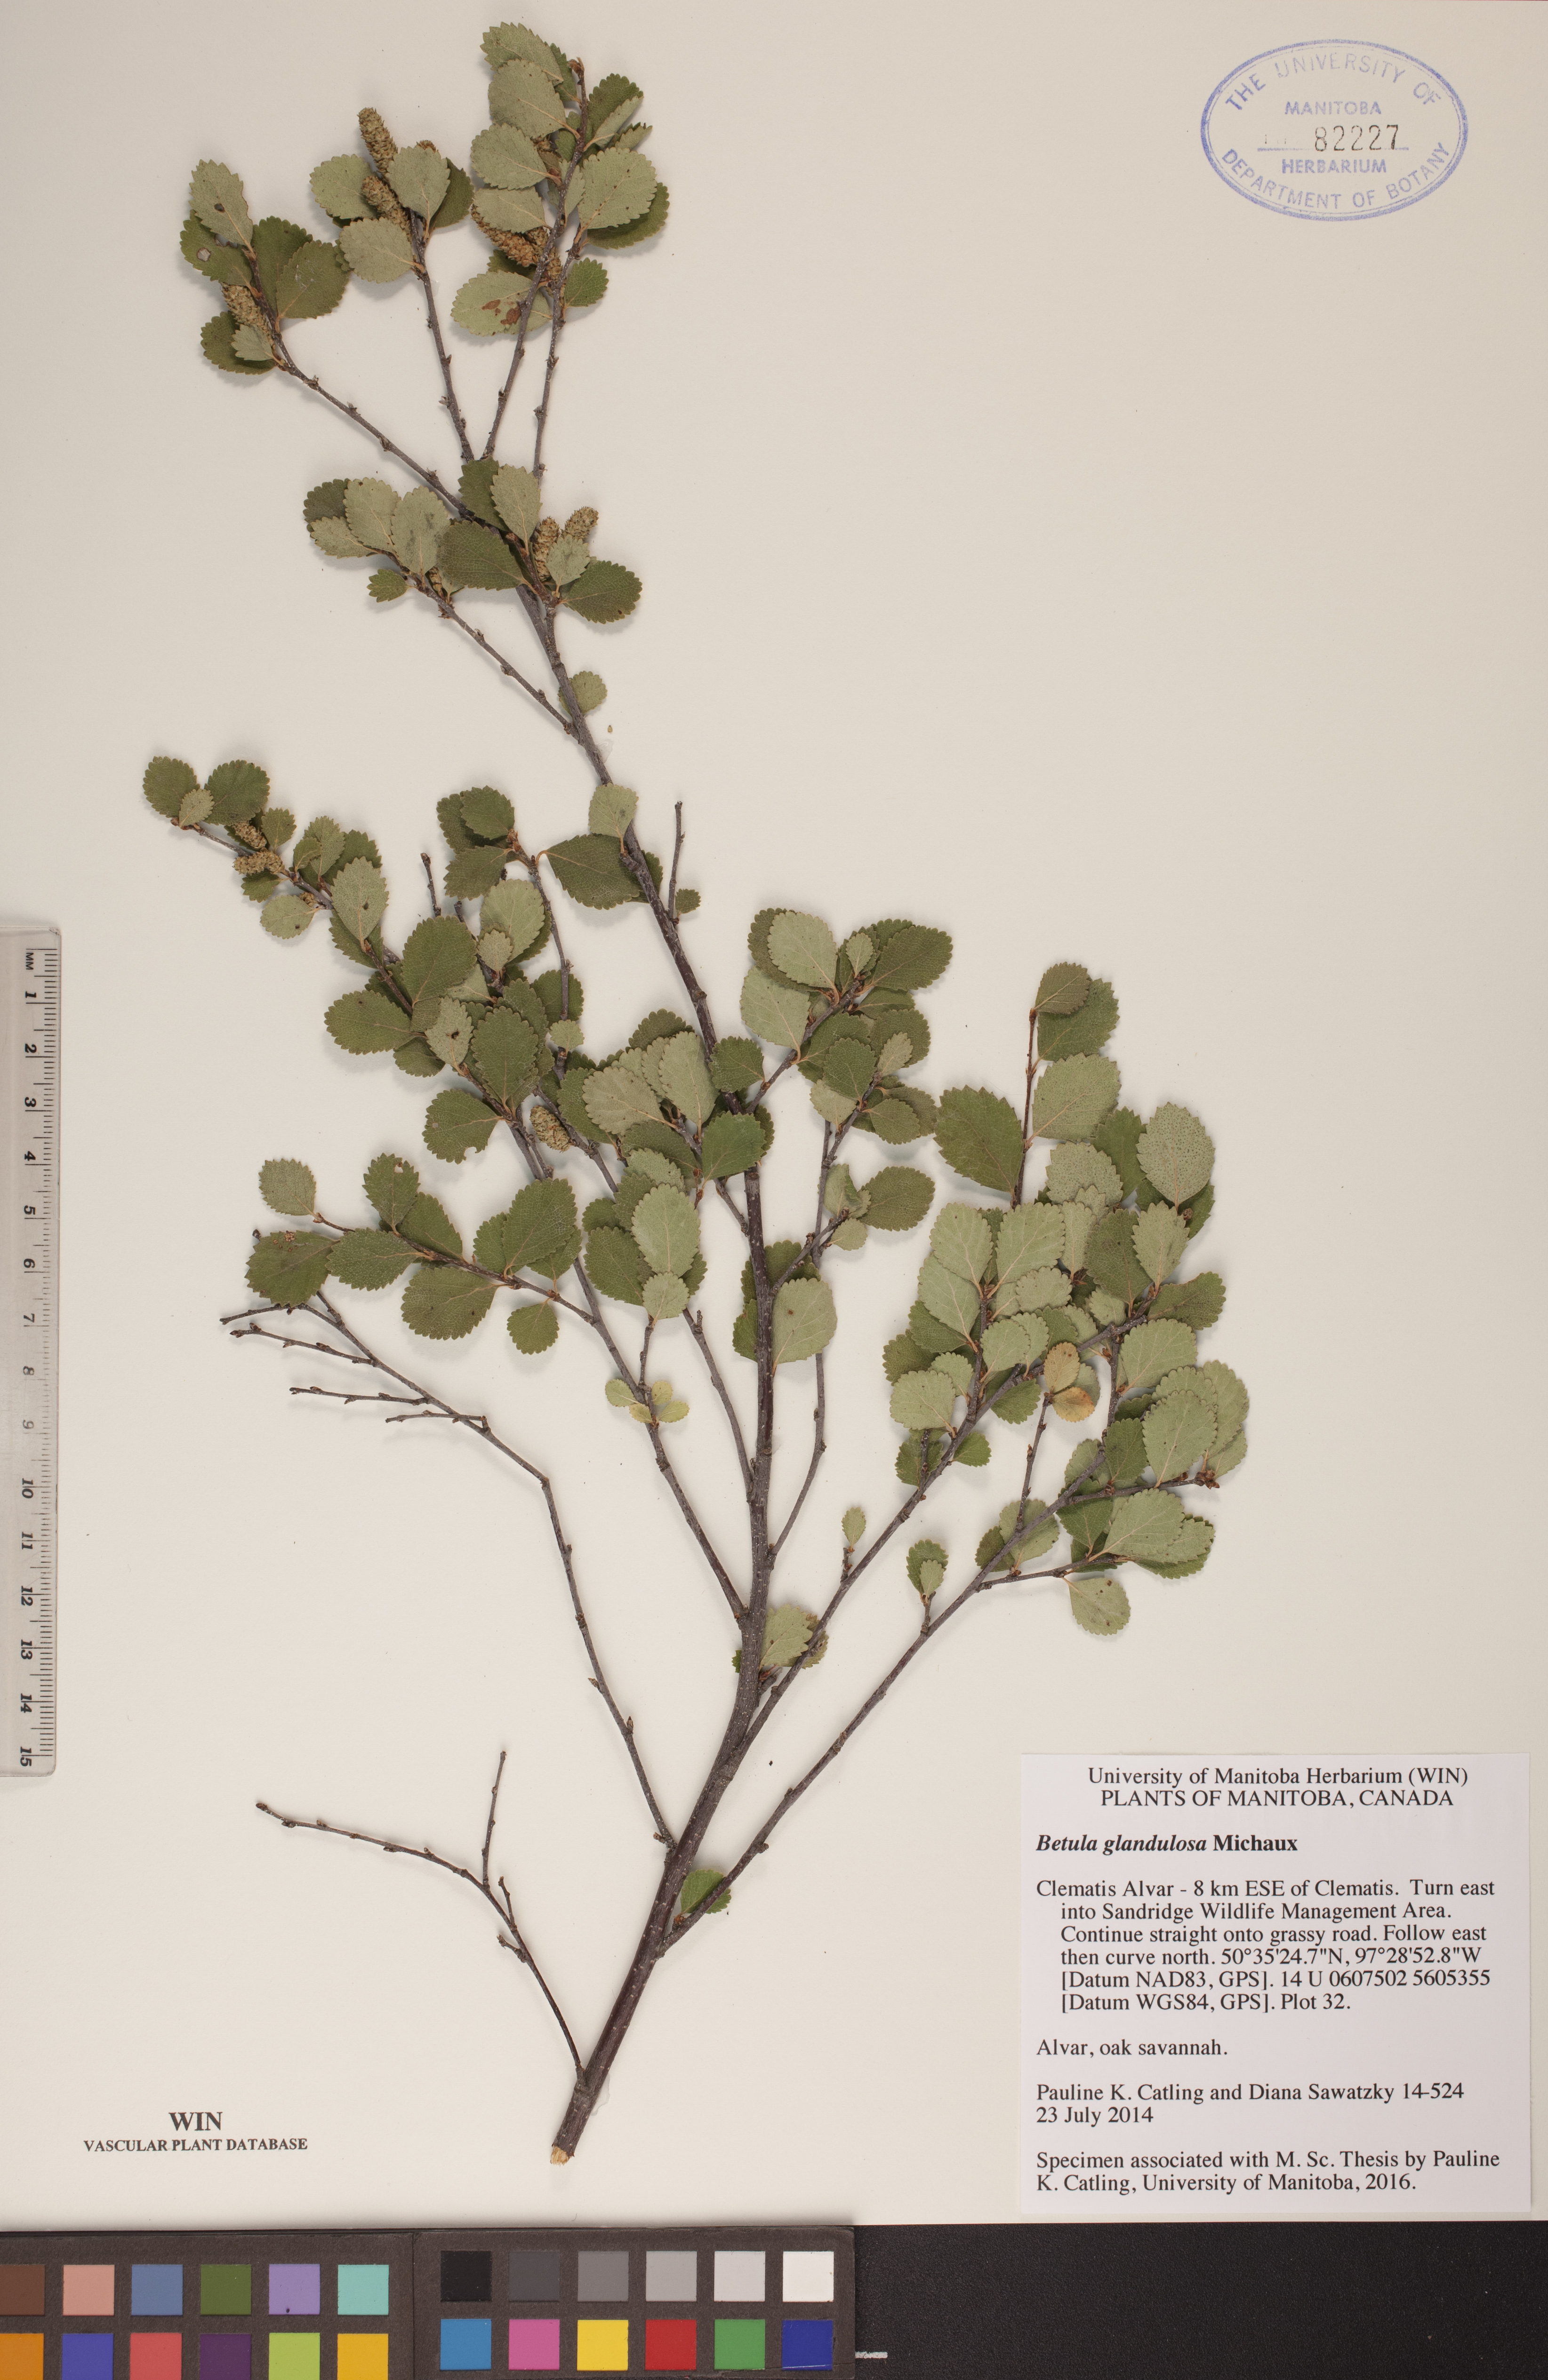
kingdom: Plantae
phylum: Tracheophyta
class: Magnoliopsida
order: Fagales
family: Betulaceae
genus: Betula
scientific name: Betula glandulosa
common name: Dwarf birch
